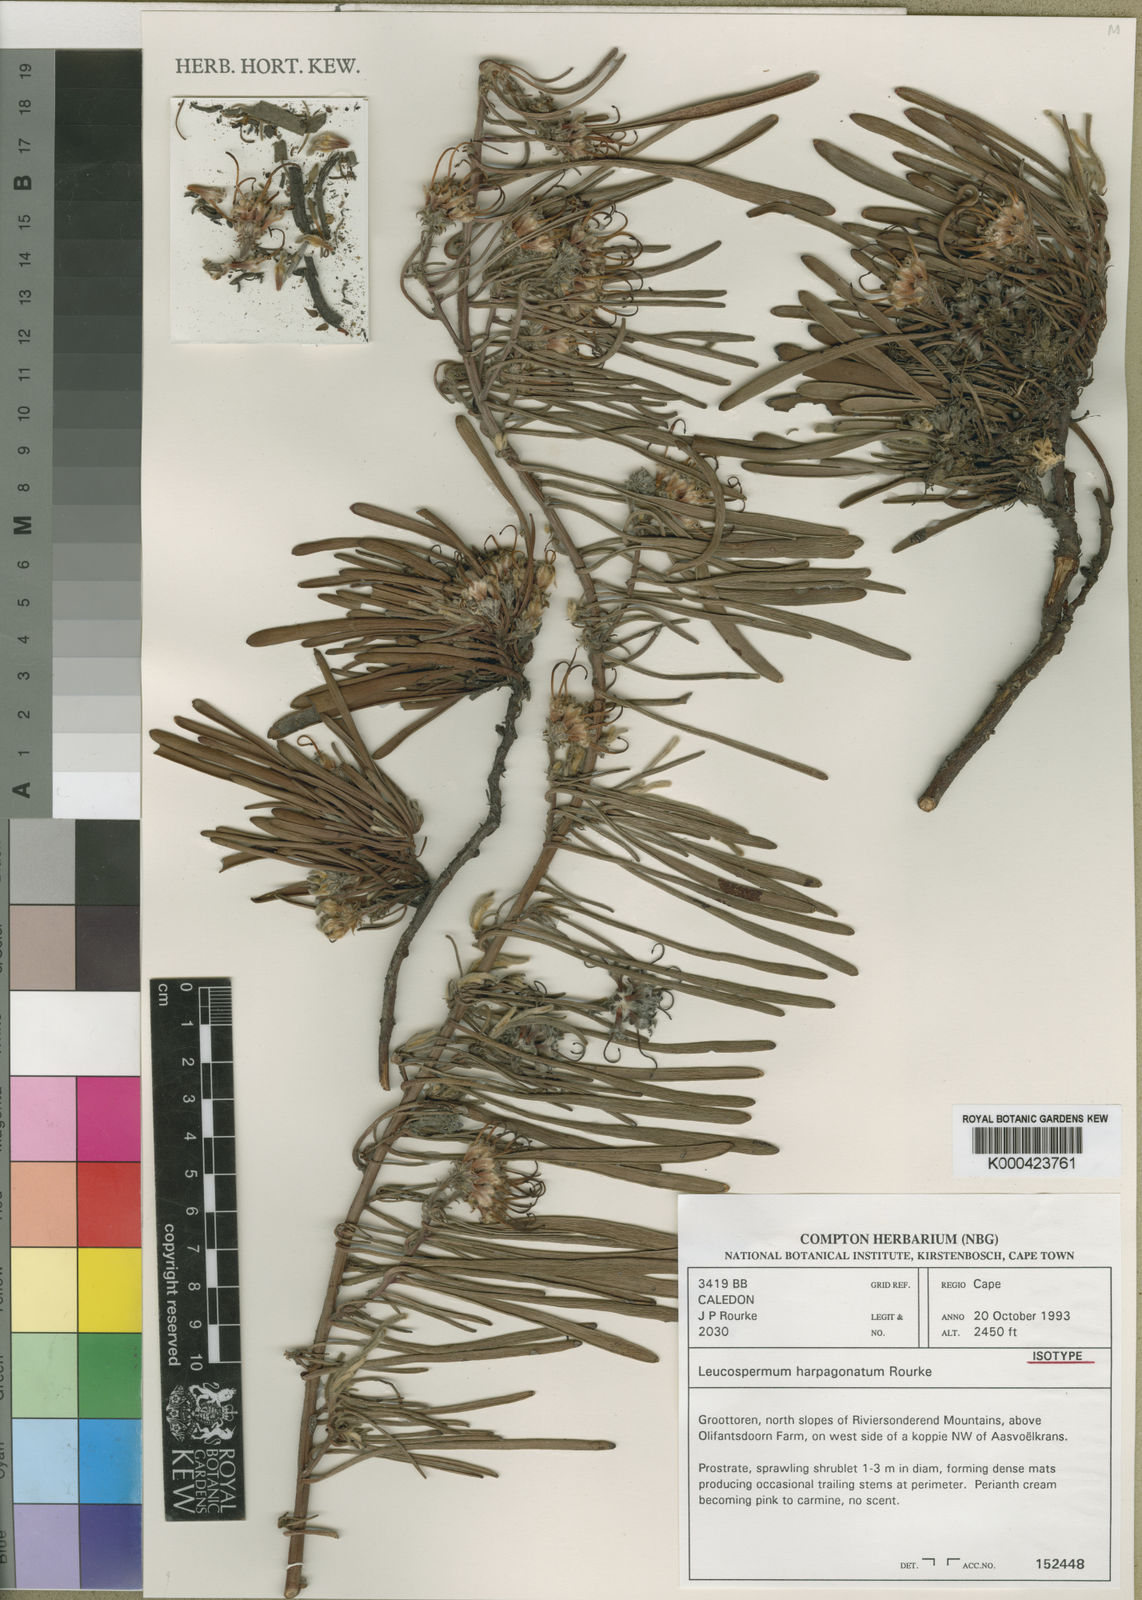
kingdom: Plantae
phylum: Tracheophyta
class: Magnoliopsida
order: Proteales
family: Proteaceae
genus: Leucospermum
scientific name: Leucospermum harpagonatum
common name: Mcgregor pincushion
